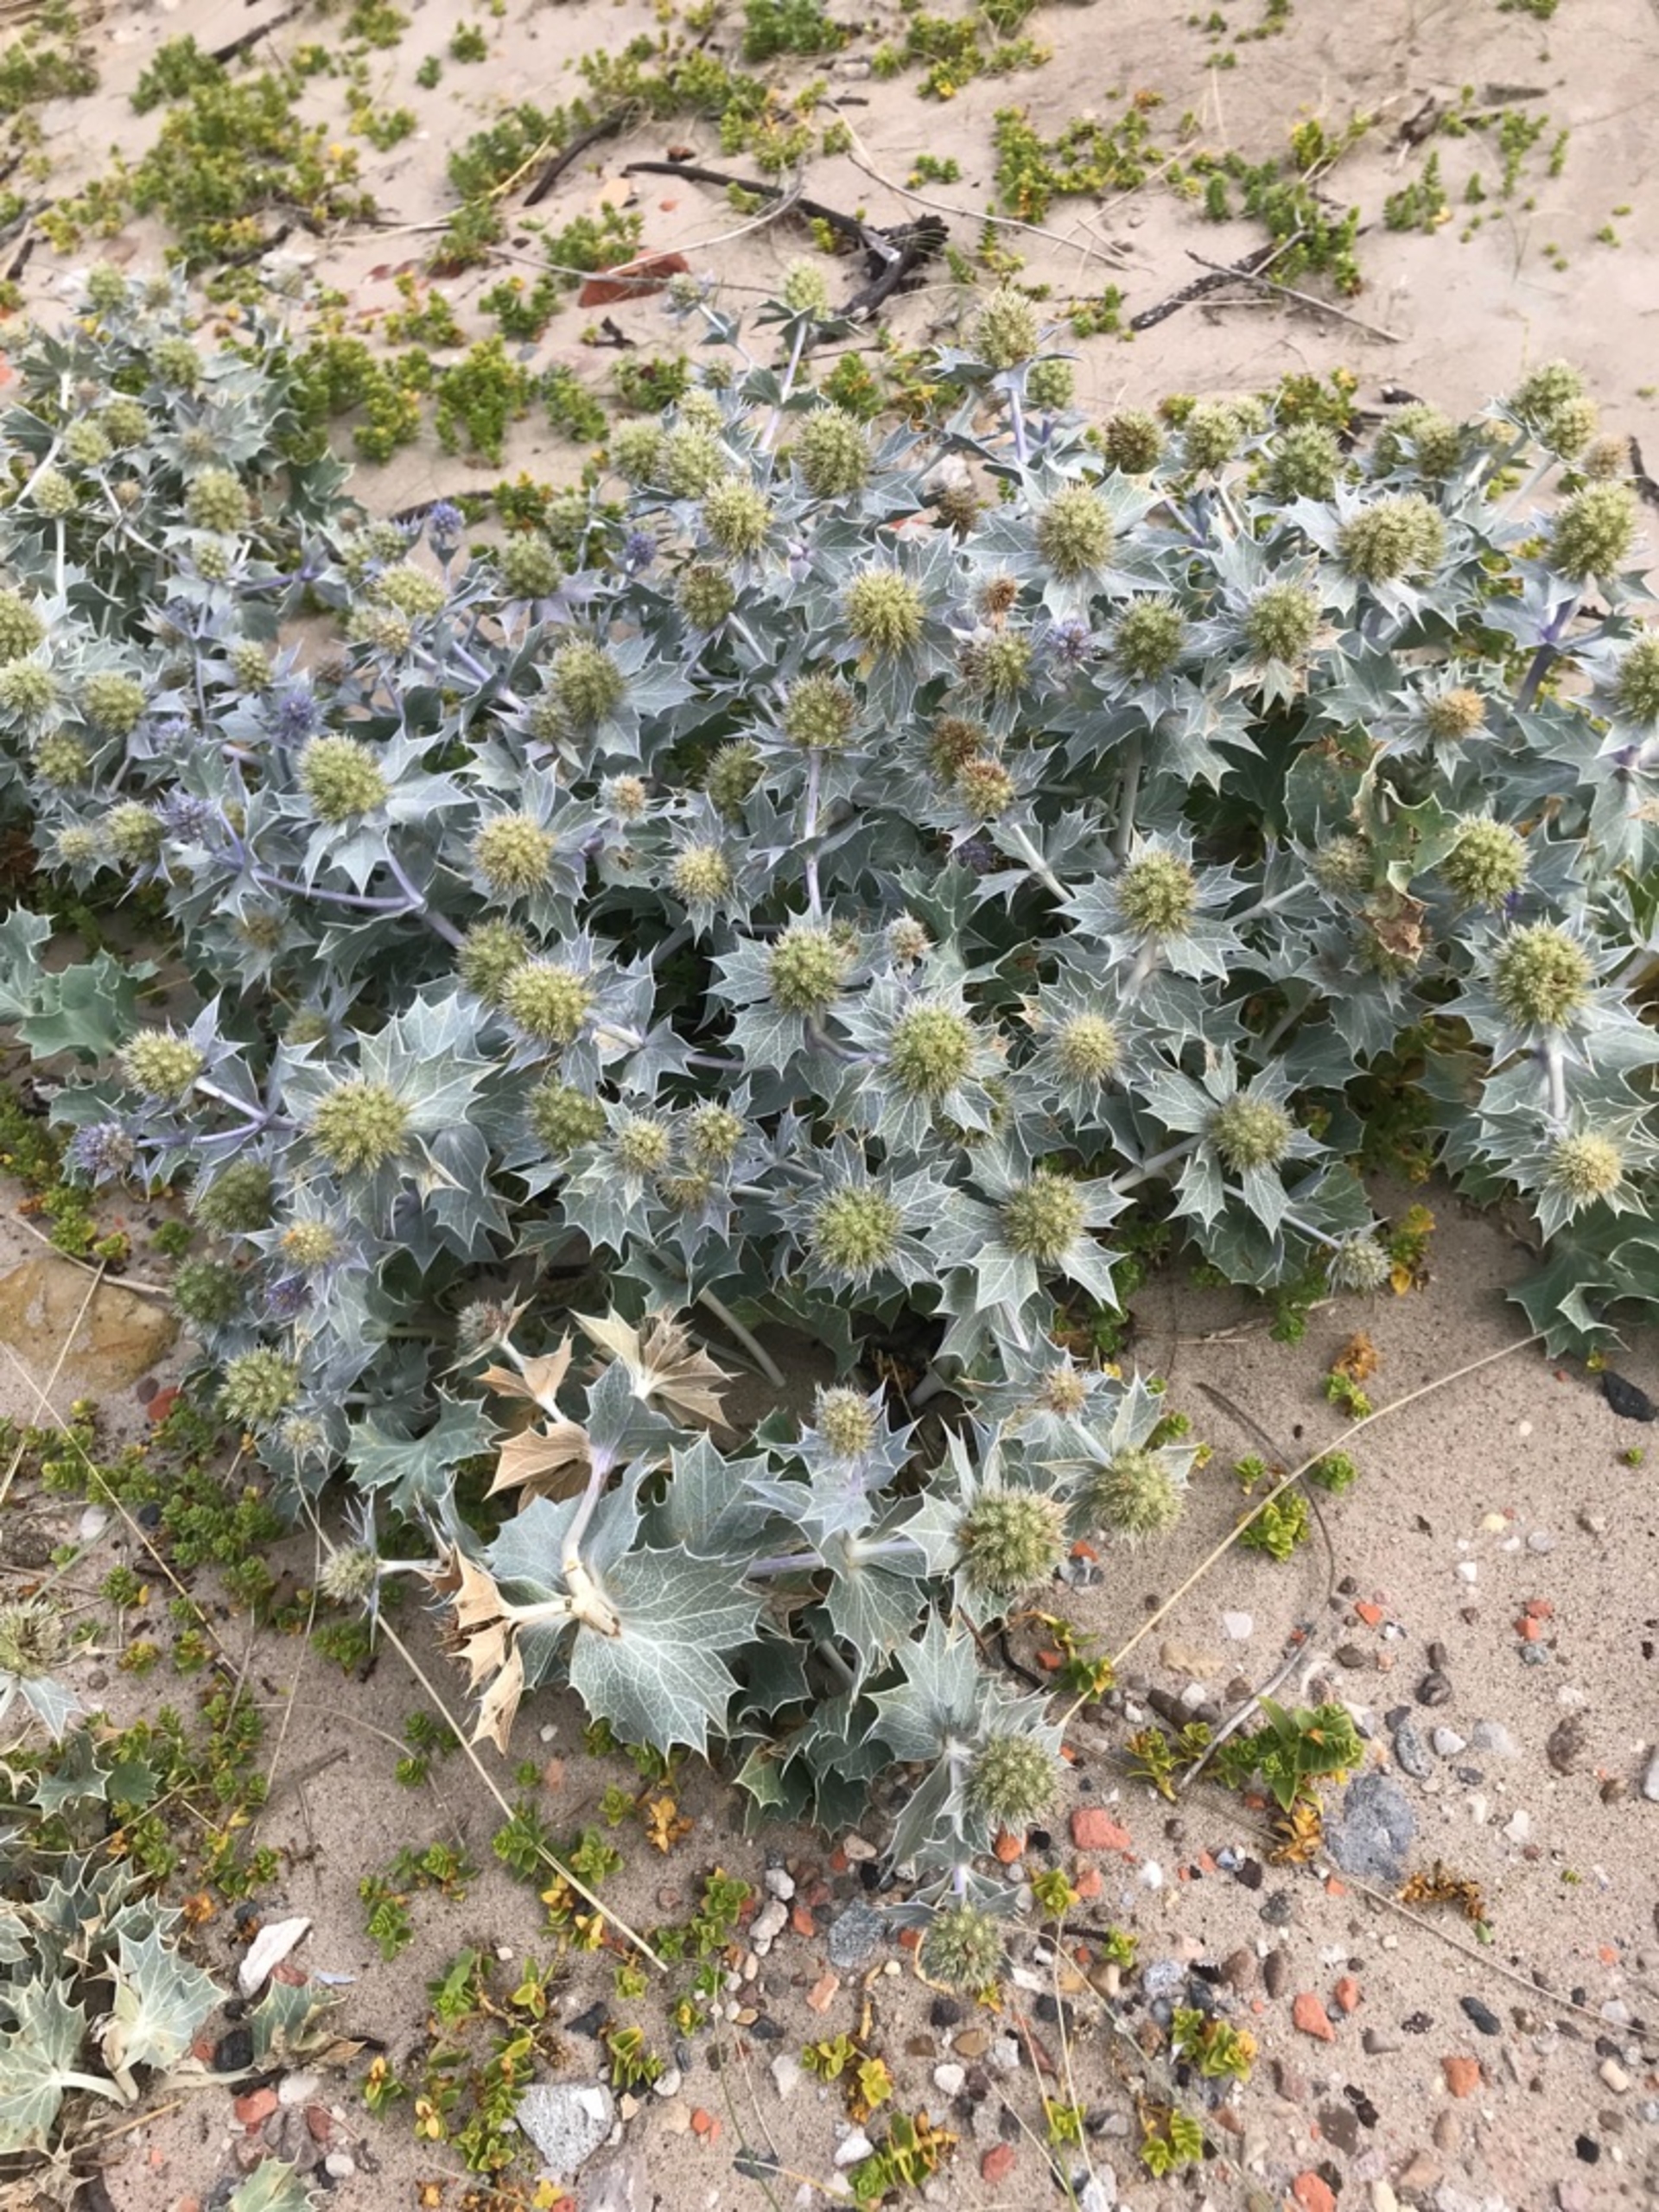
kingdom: Plantae
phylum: Tracheophyta
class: Magnoliopsida
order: Apiales
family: Apiaceae
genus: Eryngium
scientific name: Eryngium maritimum
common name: Strand-mandstro
